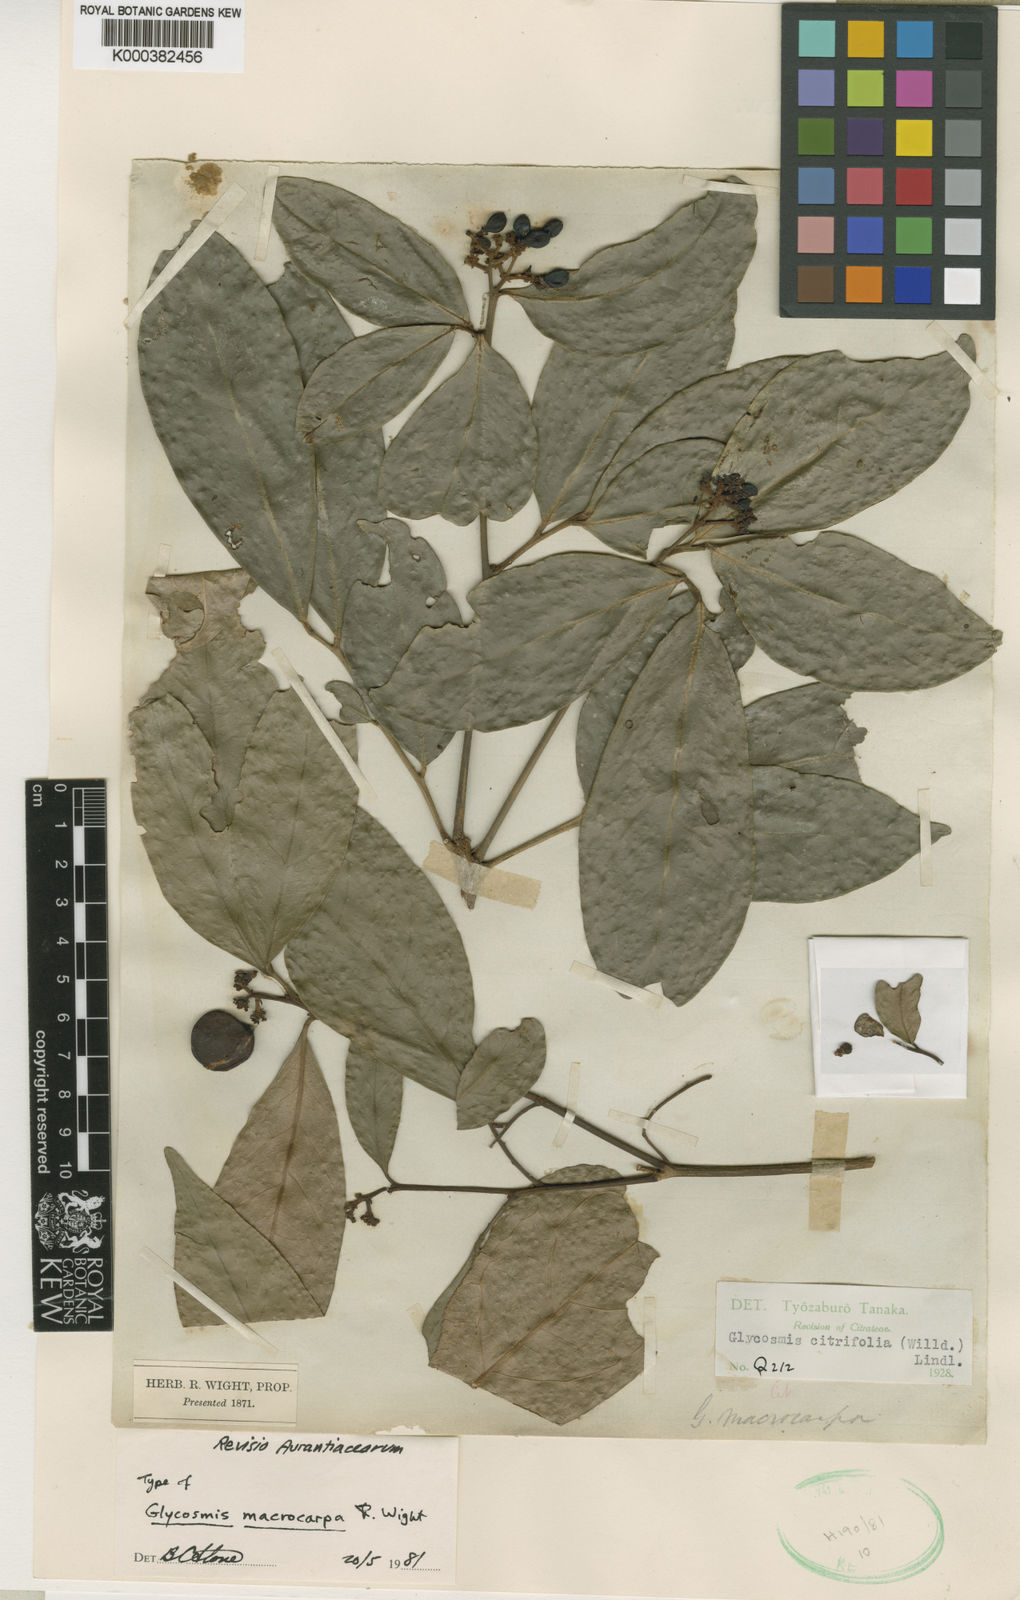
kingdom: Plantae
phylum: Tracheophyta
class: Magnoliopsida
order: Sapindales
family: Rutaceae
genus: Glycosmis
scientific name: Glycosmis macrocarpa
